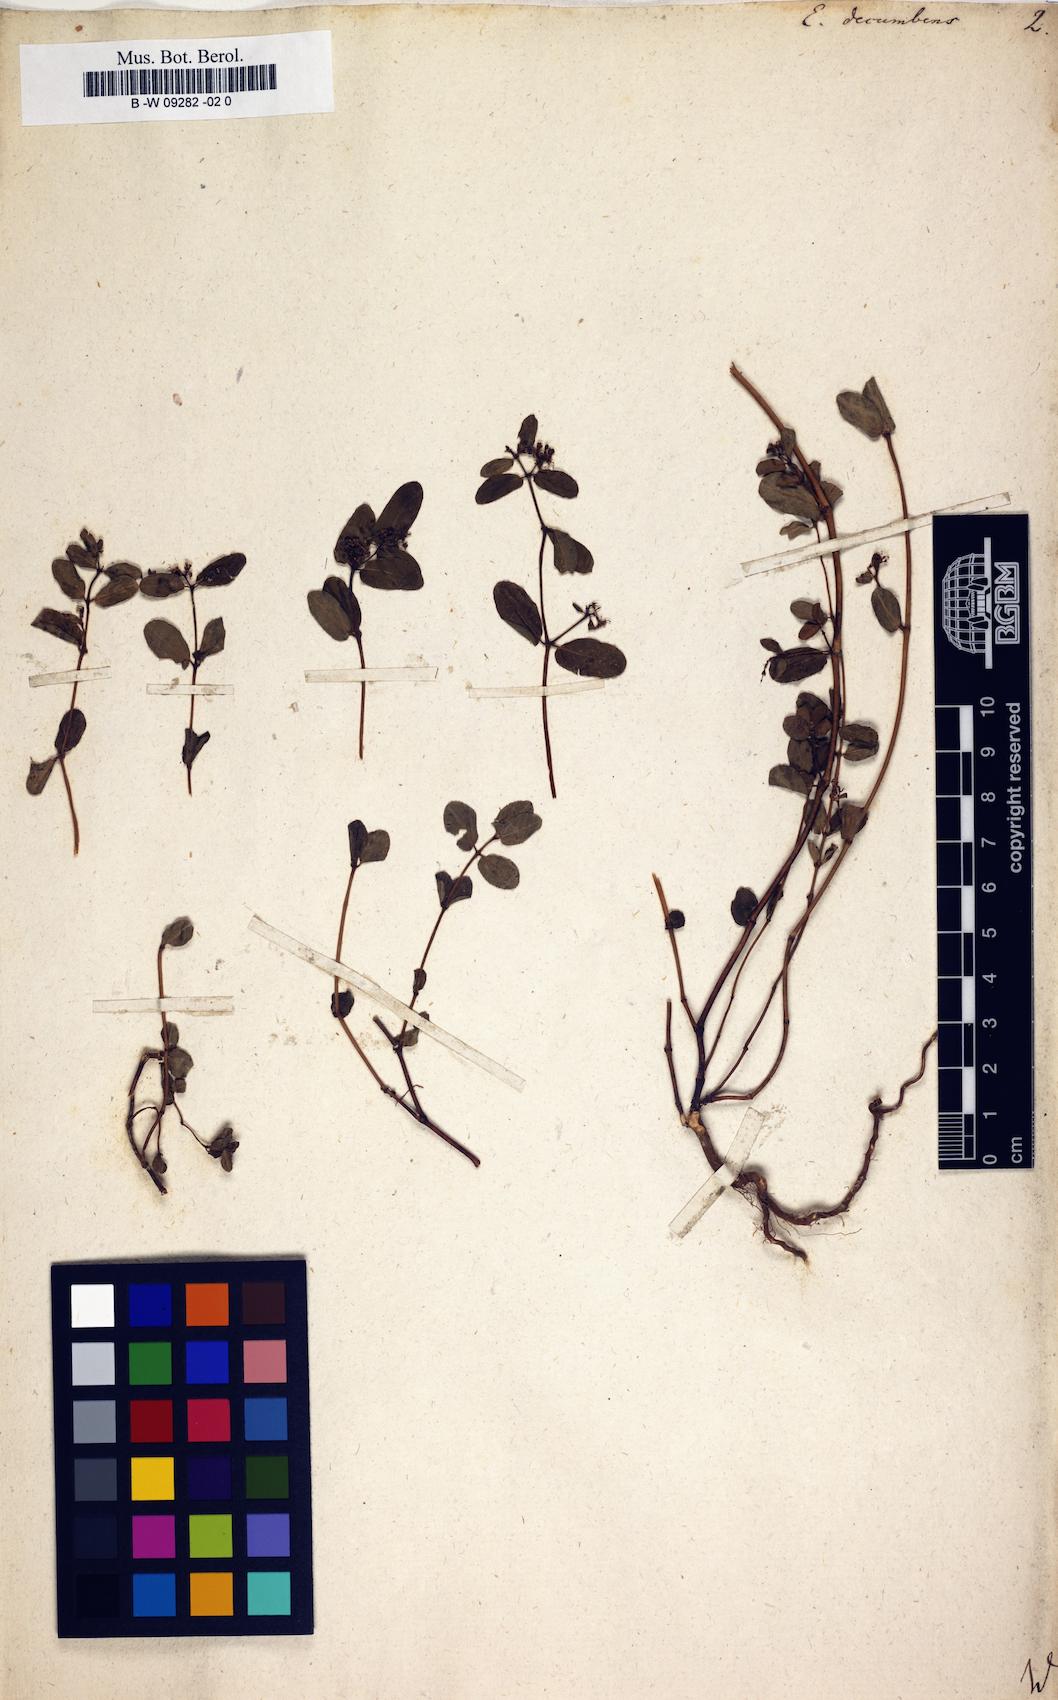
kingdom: Plantae
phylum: Tracheophyta
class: Magnoliopsida
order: Malpighiales
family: Euphorbiaceae
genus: Euphorbia
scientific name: Euphorbia indica
